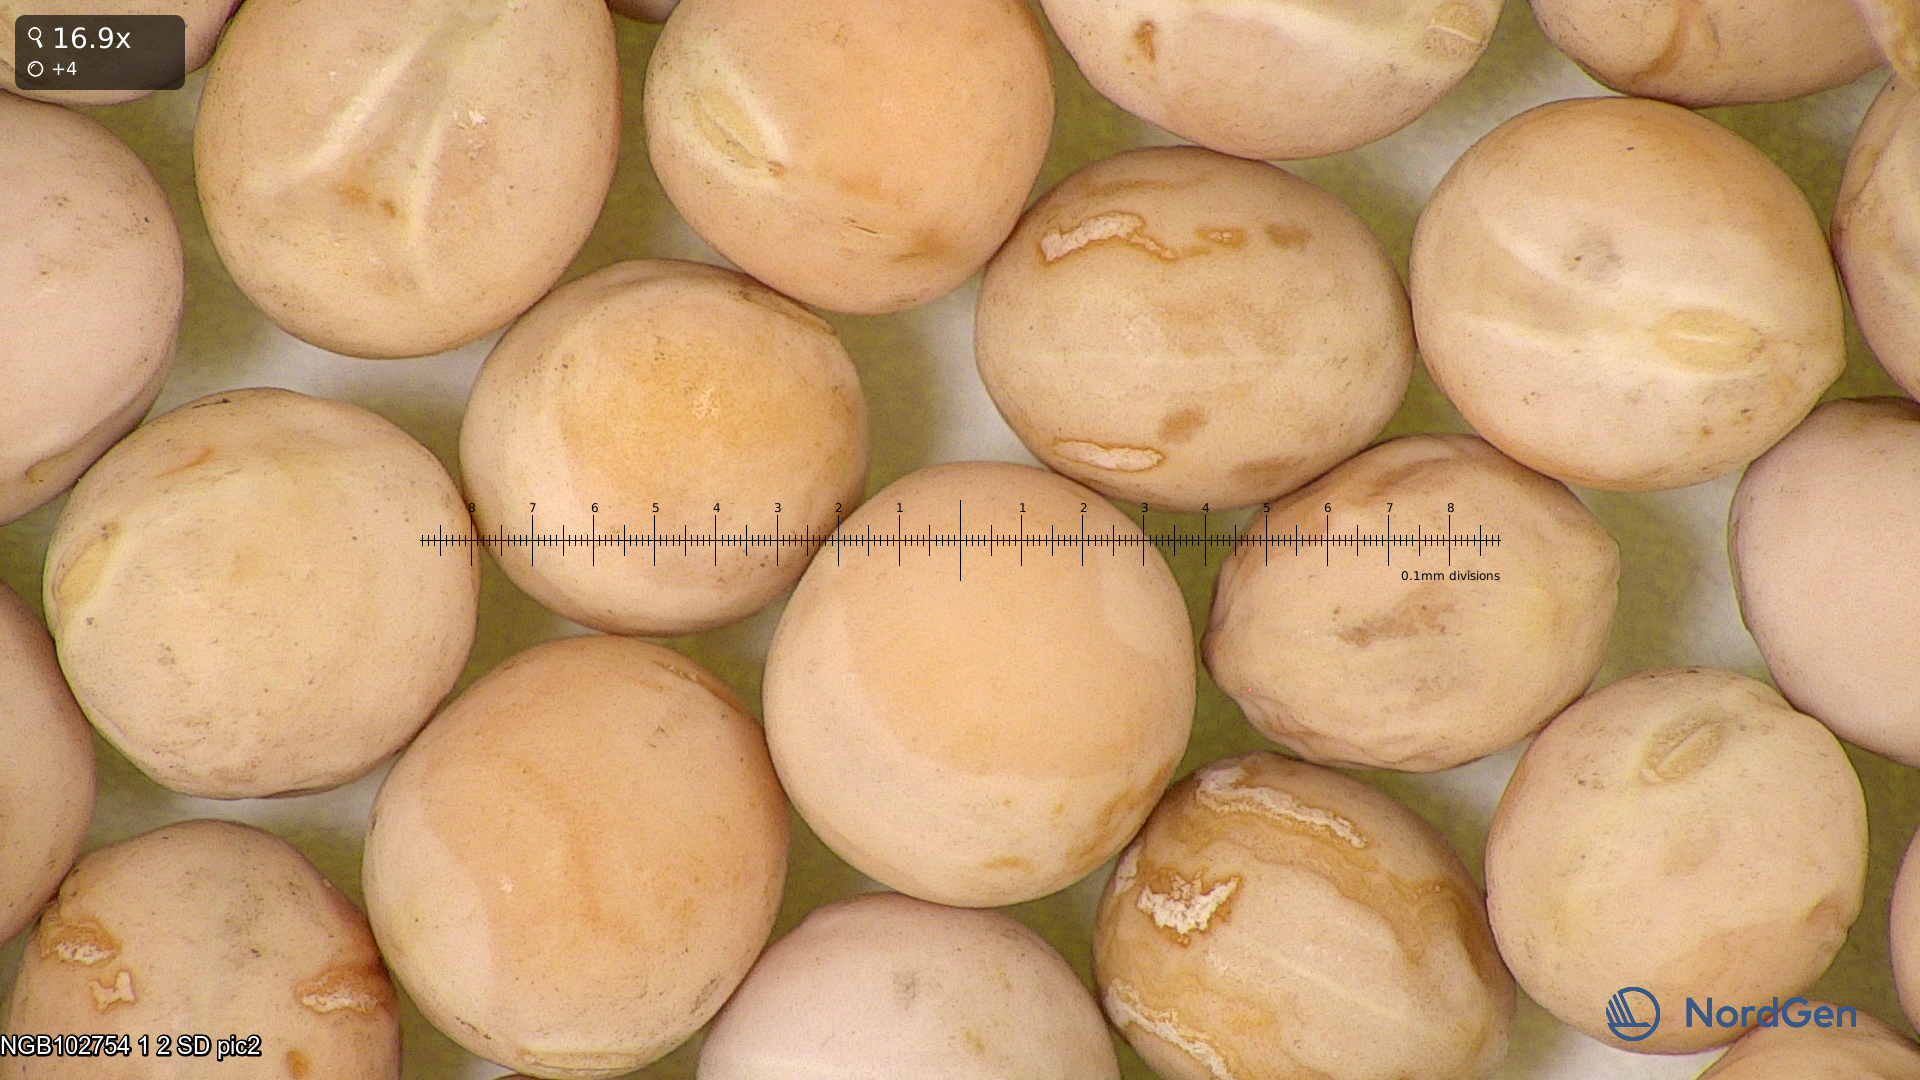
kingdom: Plantae
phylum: Tracheophyta
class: Magnoliopsida
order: Fabales
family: Fabaceae
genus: Lathyrus
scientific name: Lathyrus oleraceus
